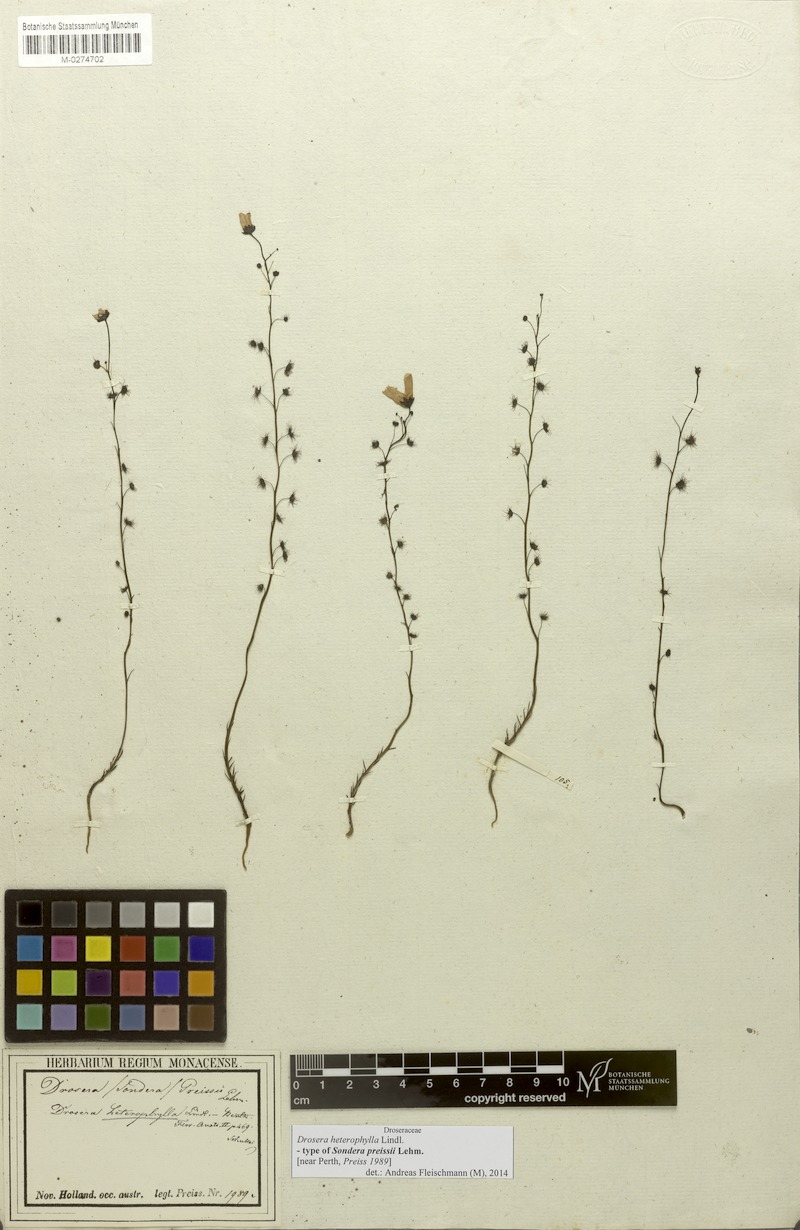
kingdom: Plantae
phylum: Tracheophyta
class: Magnoliopsida
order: Caryophyllales
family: Droseraceae
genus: Drosera
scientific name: Drosera heterophylla
